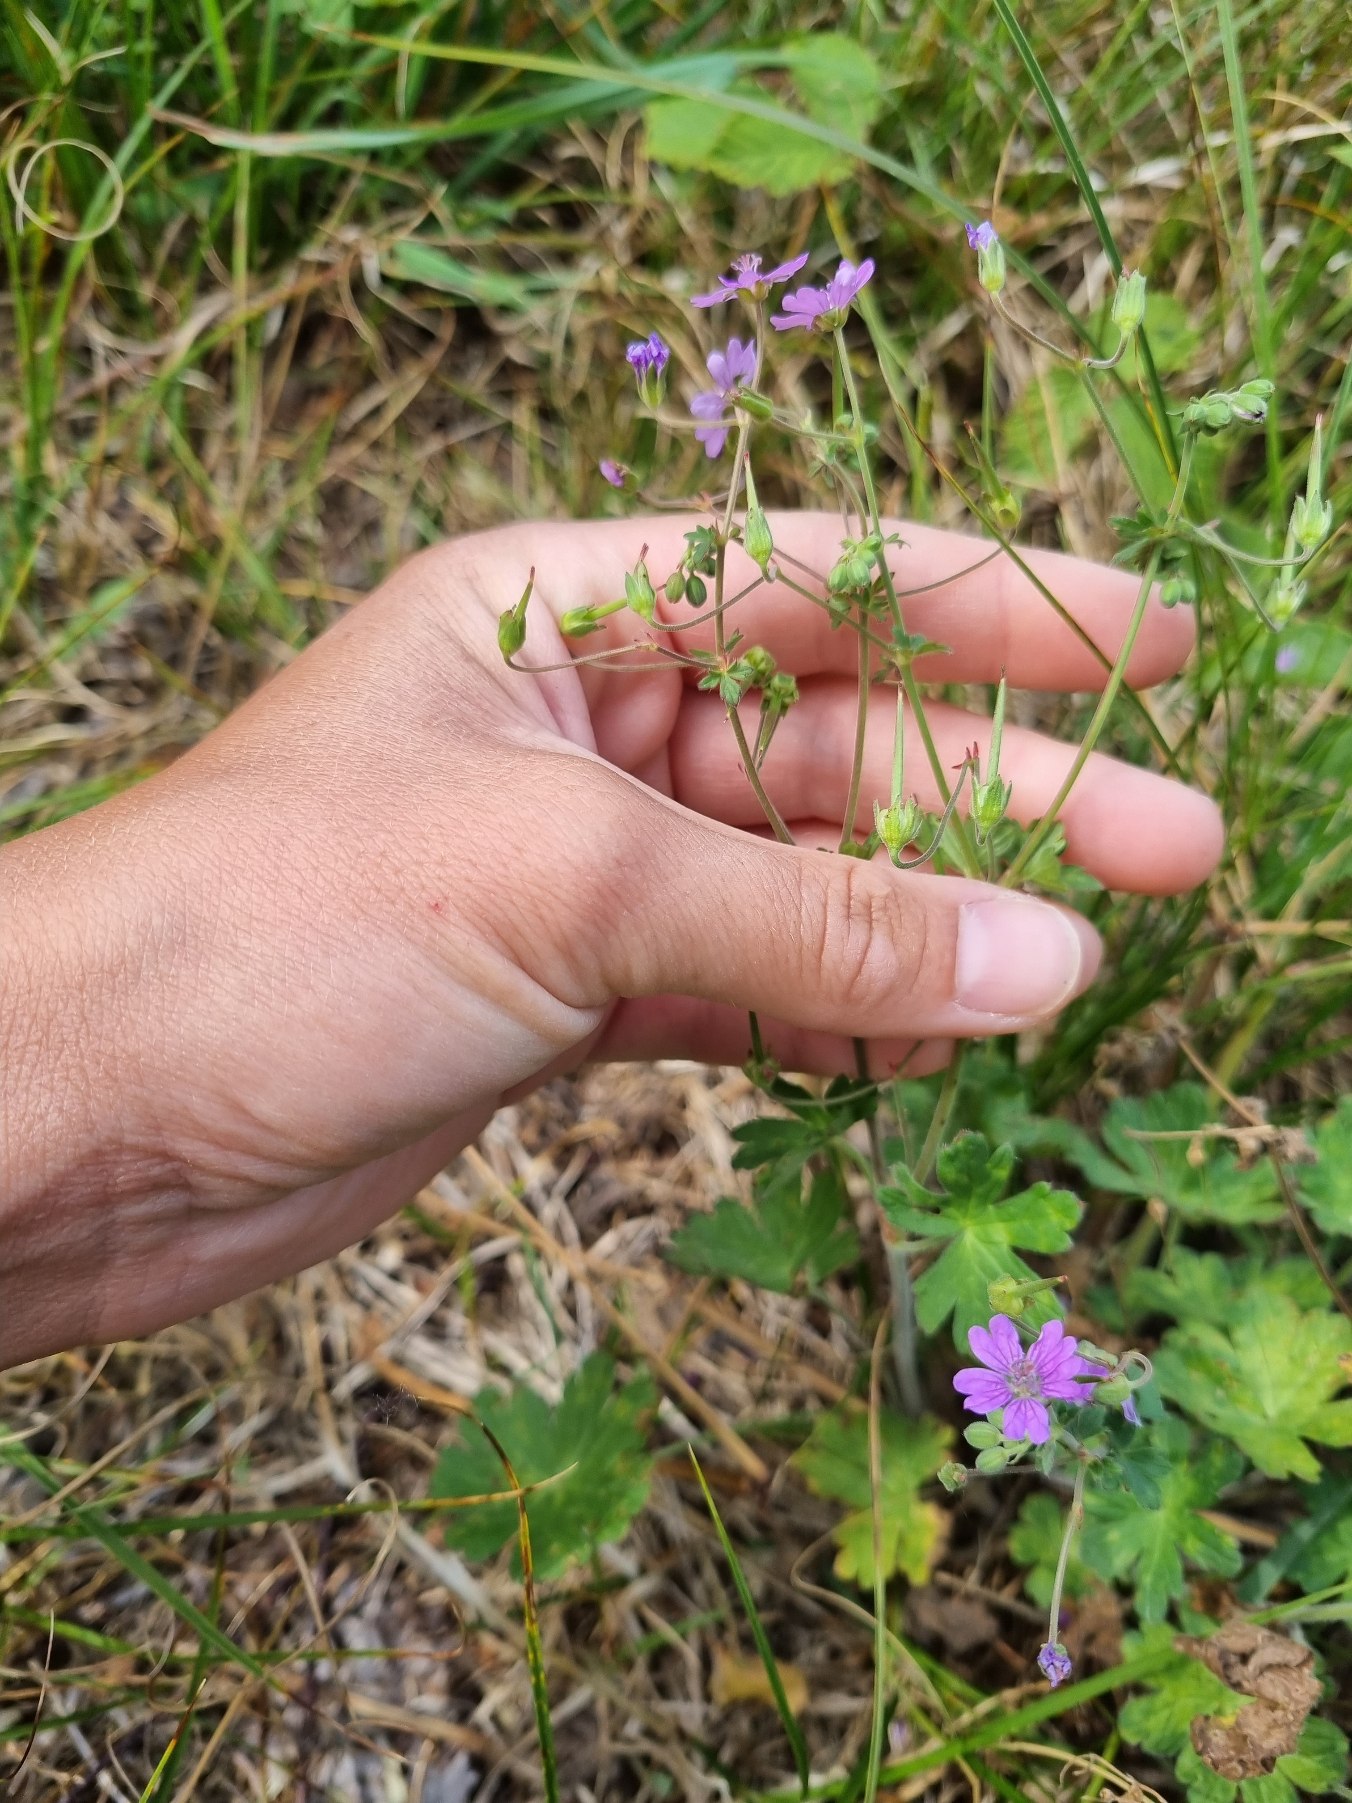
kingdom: Plantae
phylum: Tracheophyta
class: Magnoliopsida
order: Geraniales
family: Geraniaceae
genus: Geranium
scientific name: Geranium pyrenaicum
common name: Pyrenæisk storkenæb
